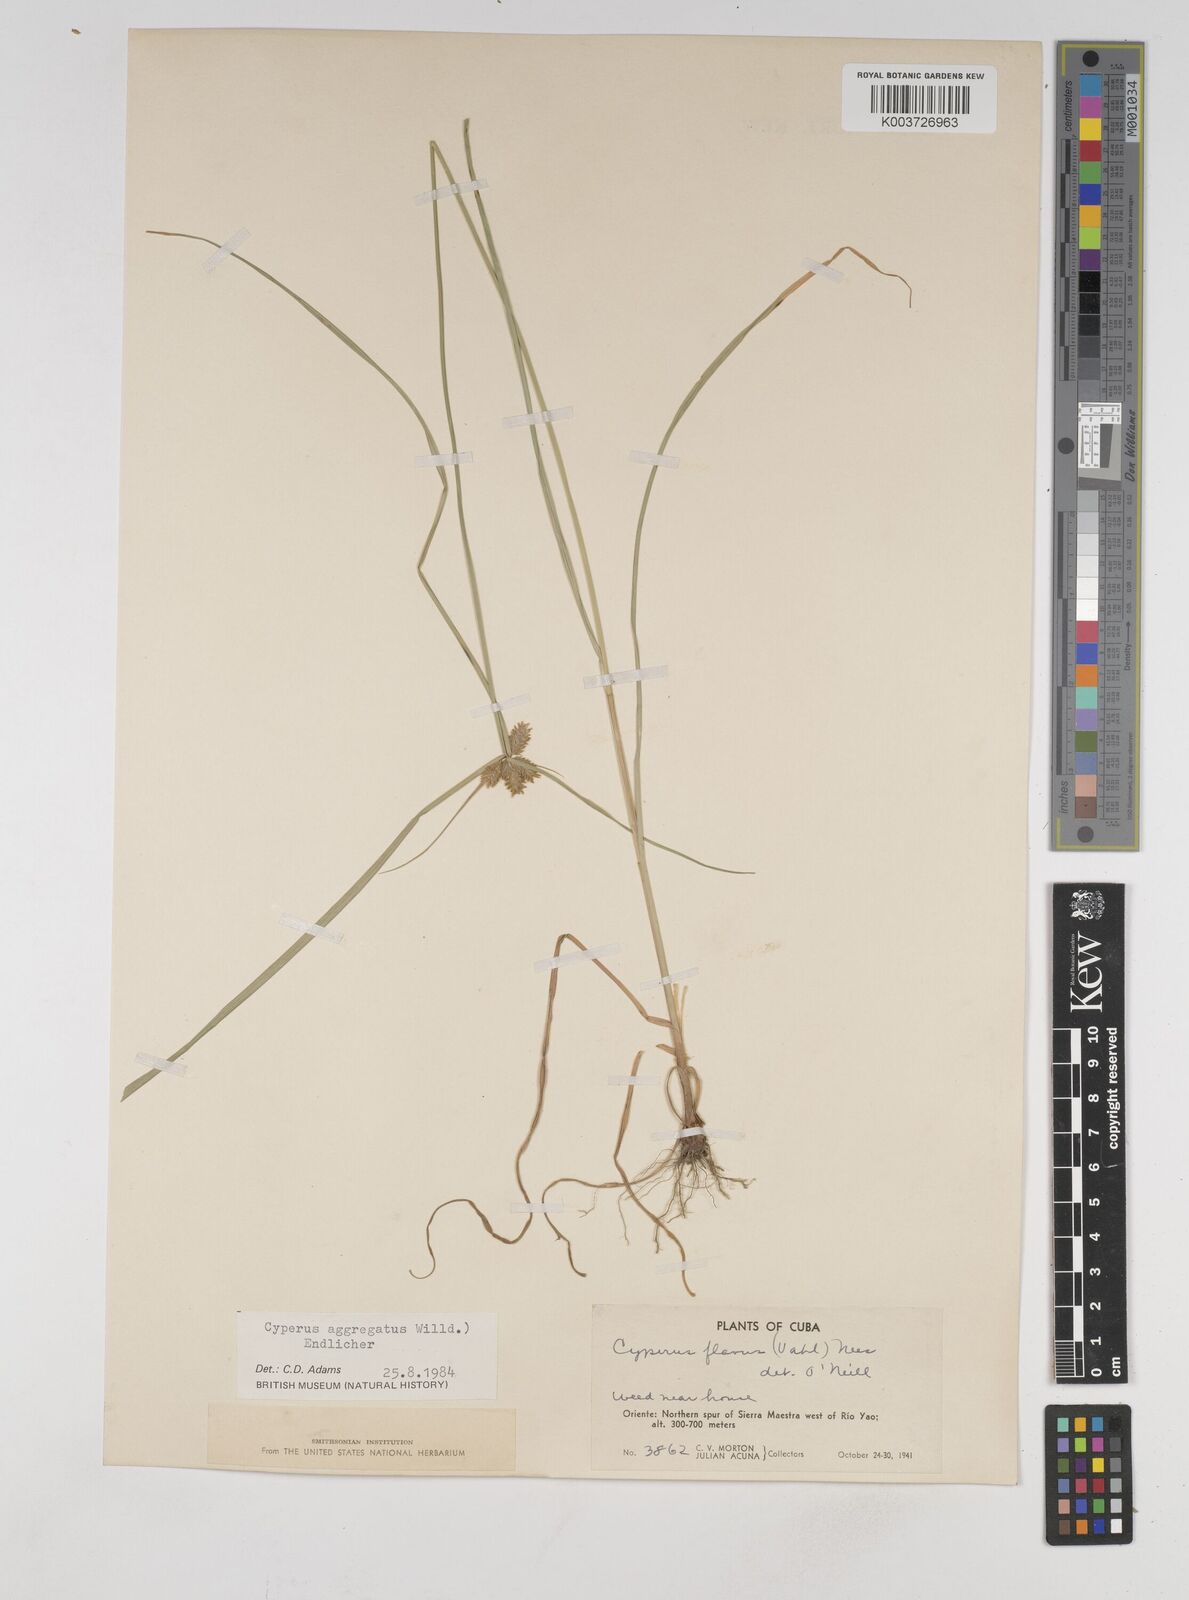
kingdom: Plantae
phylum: Tracheophyta
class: Liliopsida
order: Poales
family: Cyperaceae
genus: Cyperus
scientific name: Cyperus aggregatus
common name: Inflatedscale flatsedge
